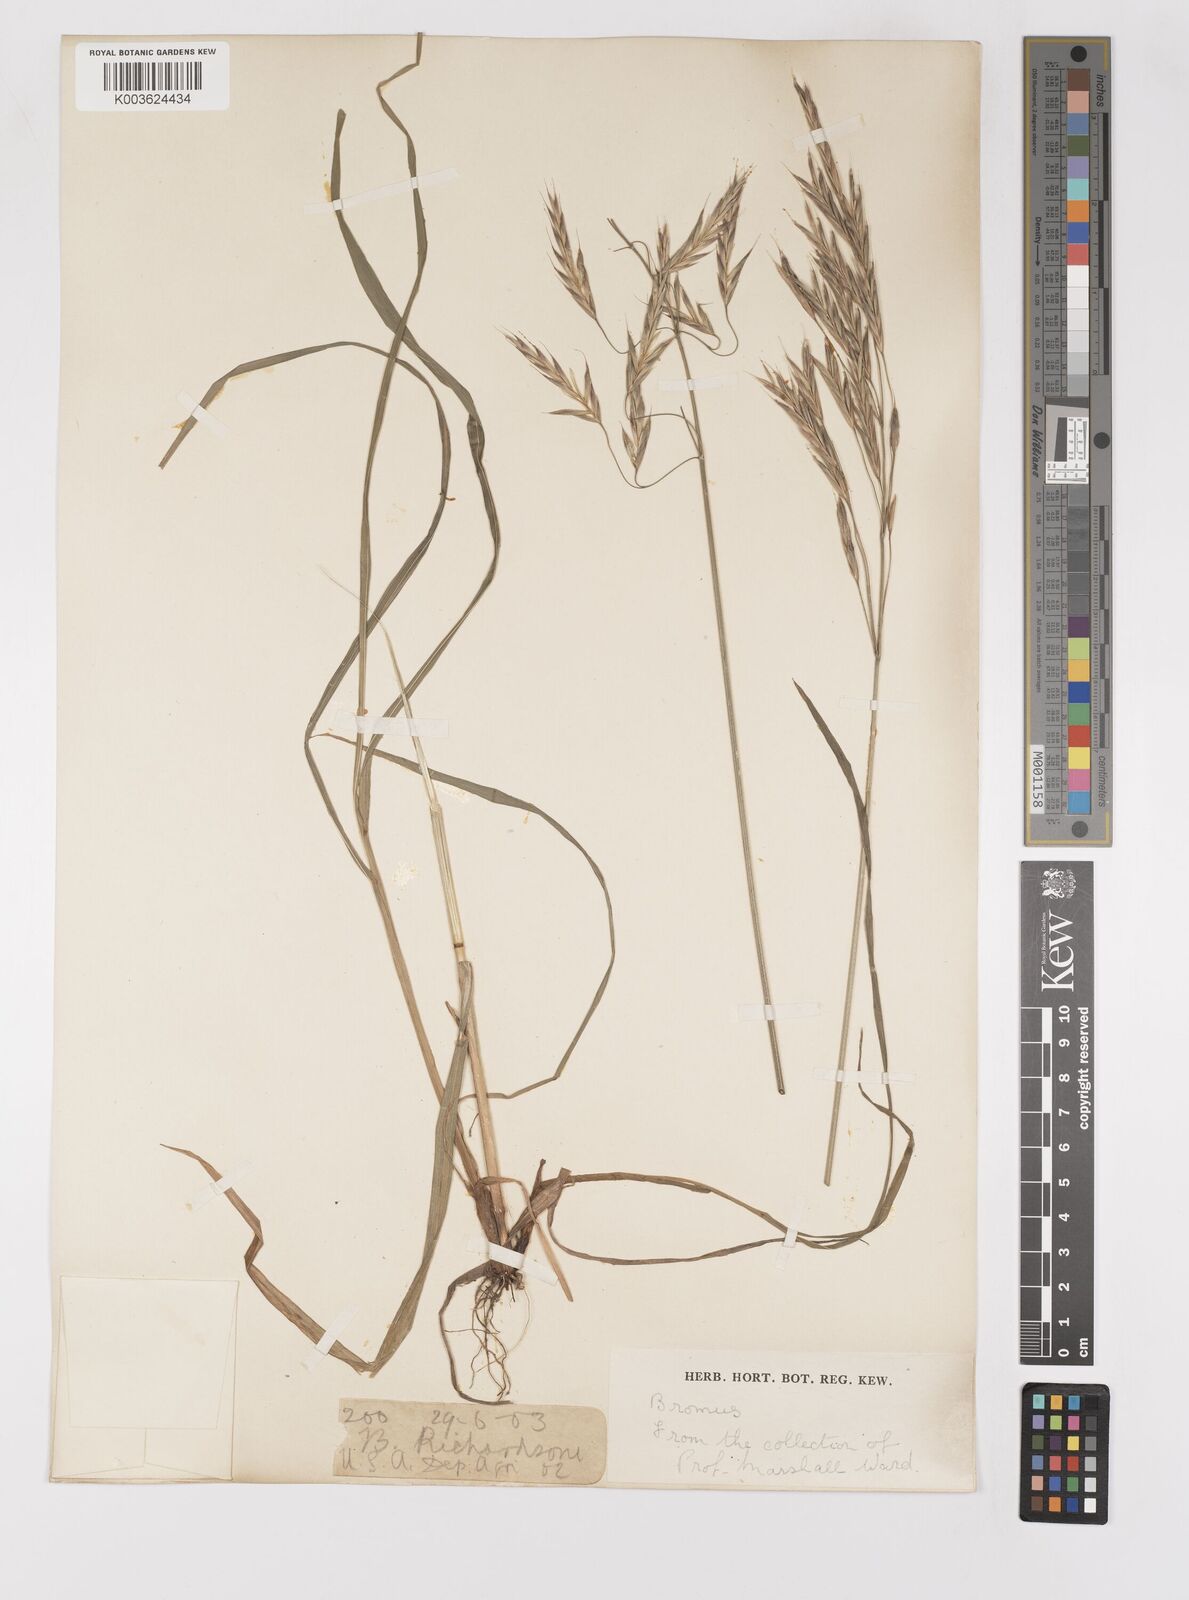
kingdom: Plantae
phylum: Tracheophyta
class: Liliopsida
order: Poales
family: Poaceae
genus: Bromus
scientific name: Bromus
